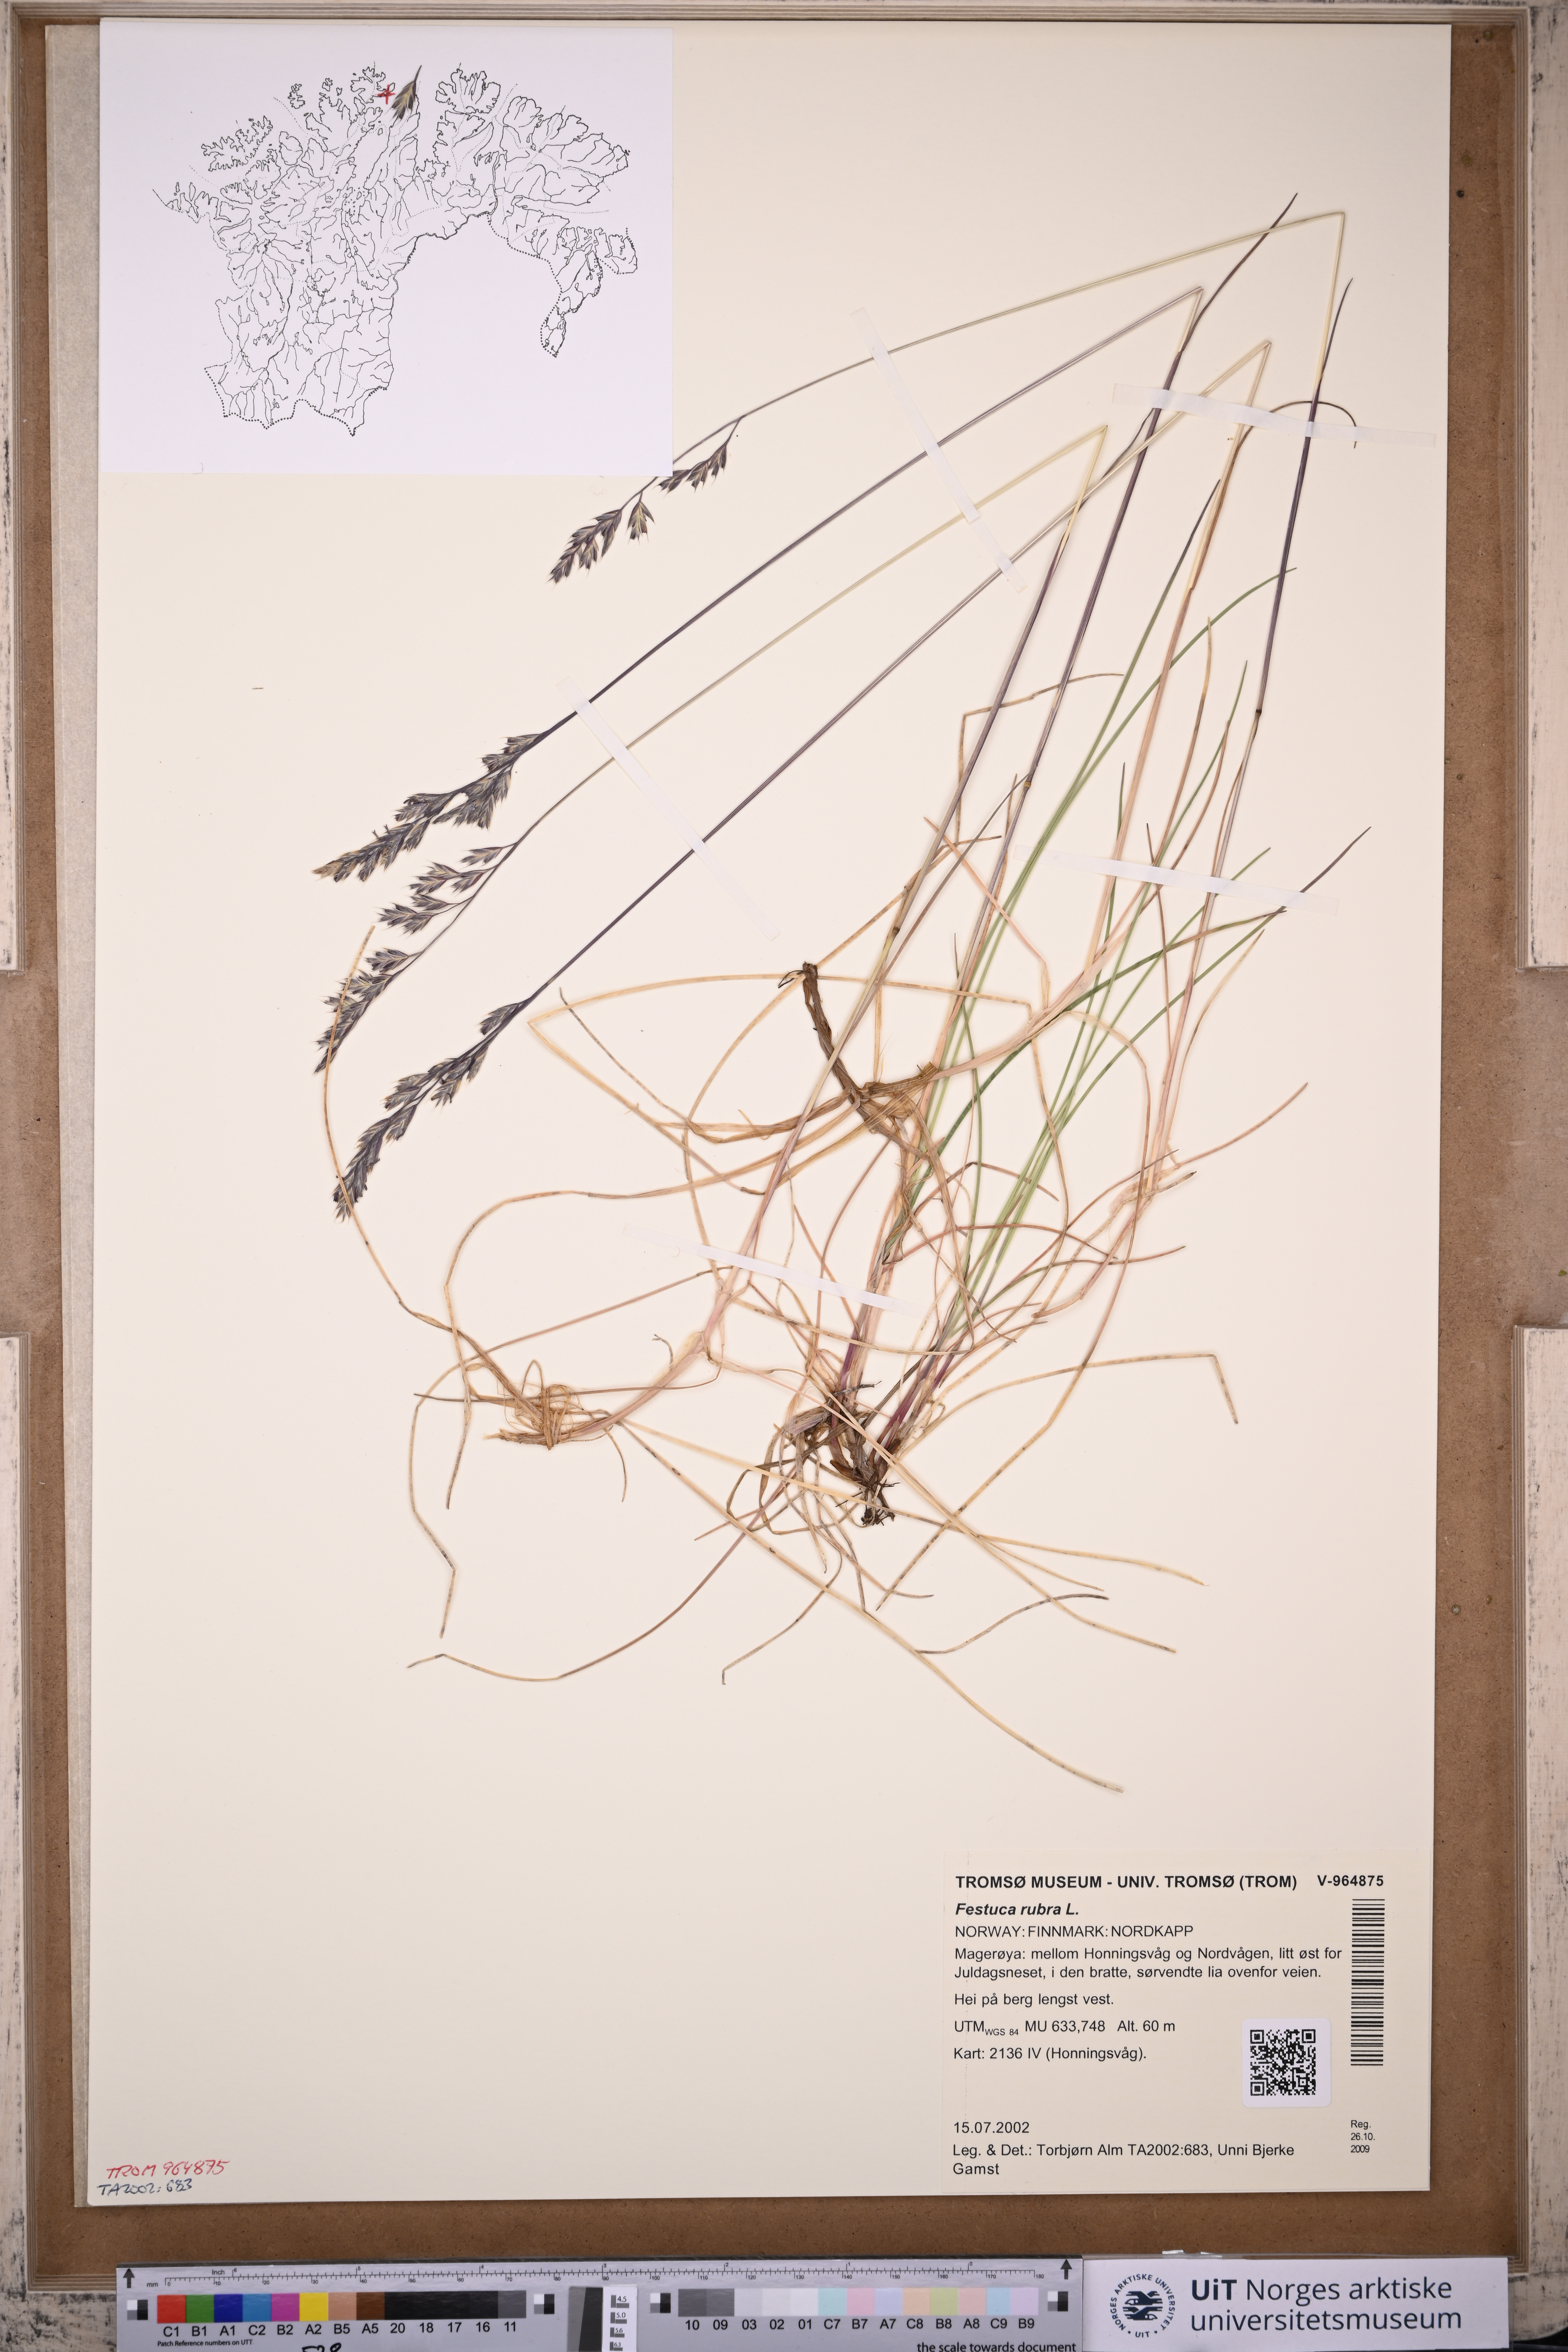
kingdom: Plantae
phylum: Tracheophyta
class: Liliopsida
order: Poales
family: Poaceae
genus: Festuca
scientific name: Festuca rubra
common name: Red fescue
